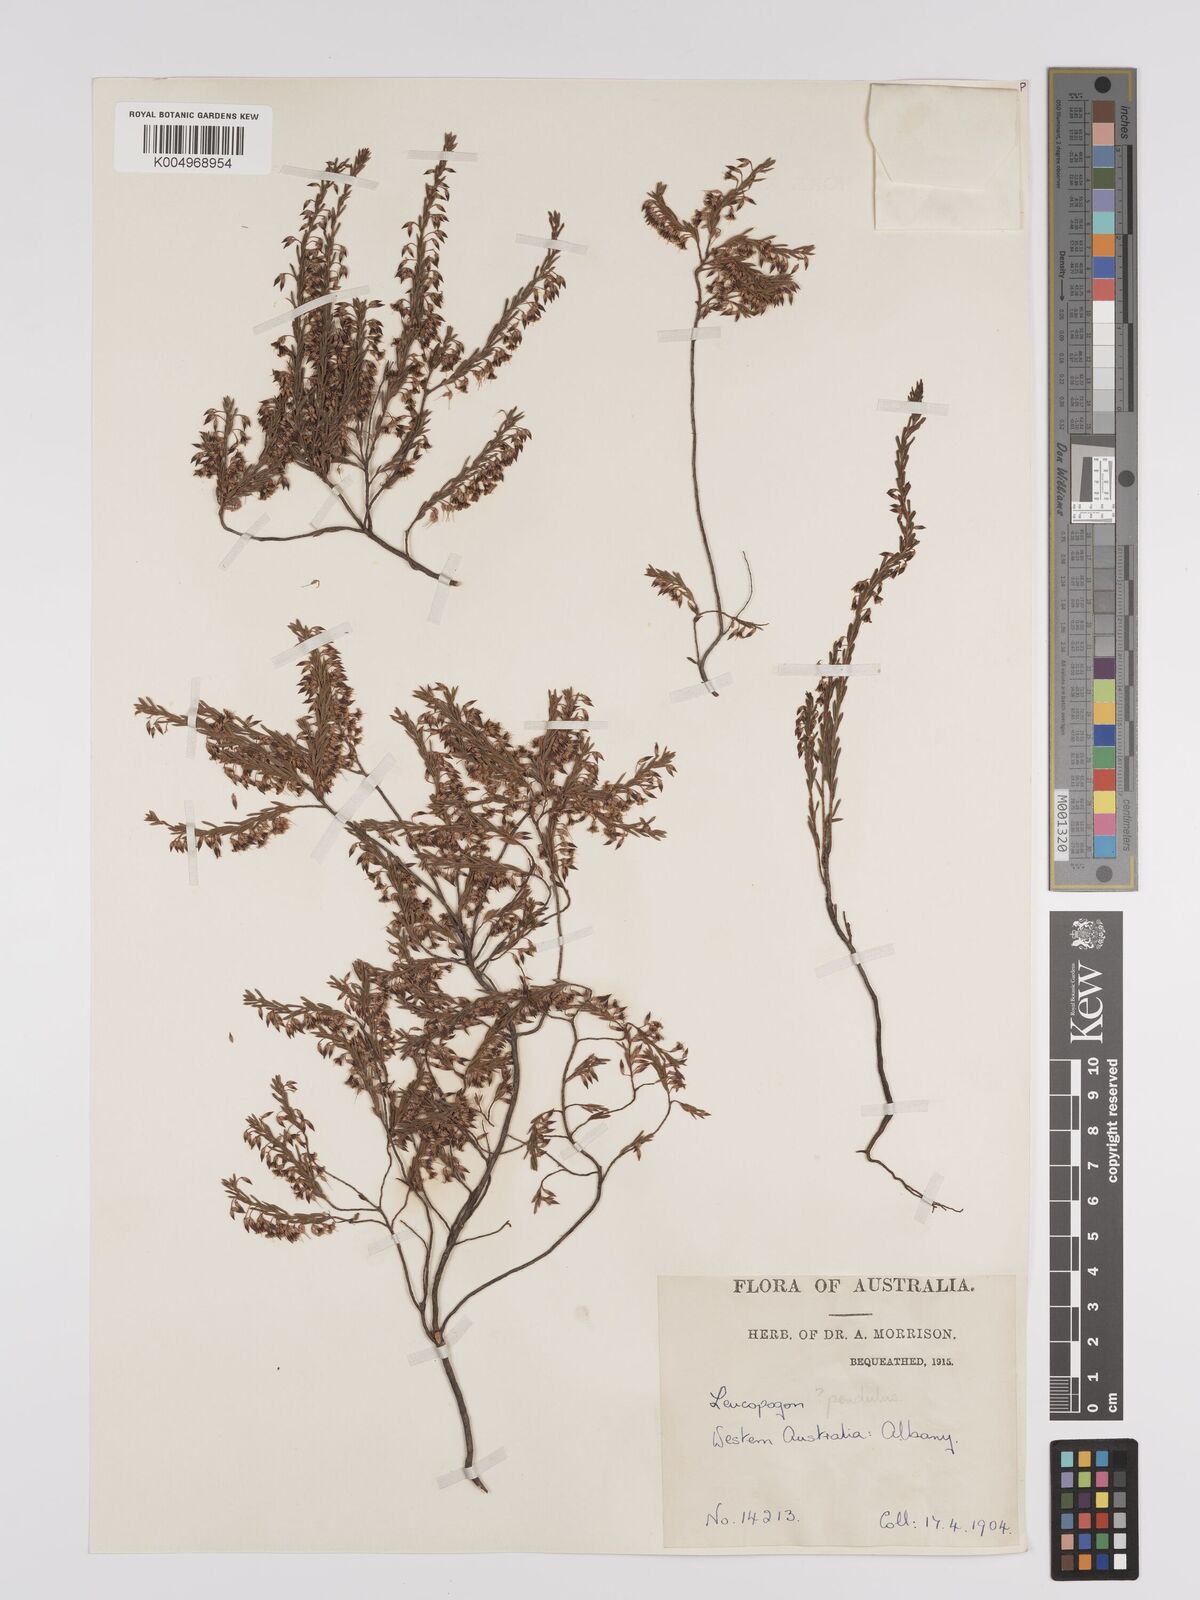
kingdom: Plantae
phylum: Tracheophyta
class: Magnoliopsida
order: Ericales
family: Ericaceae
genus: Styphelia
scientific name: Styphelia pendula
